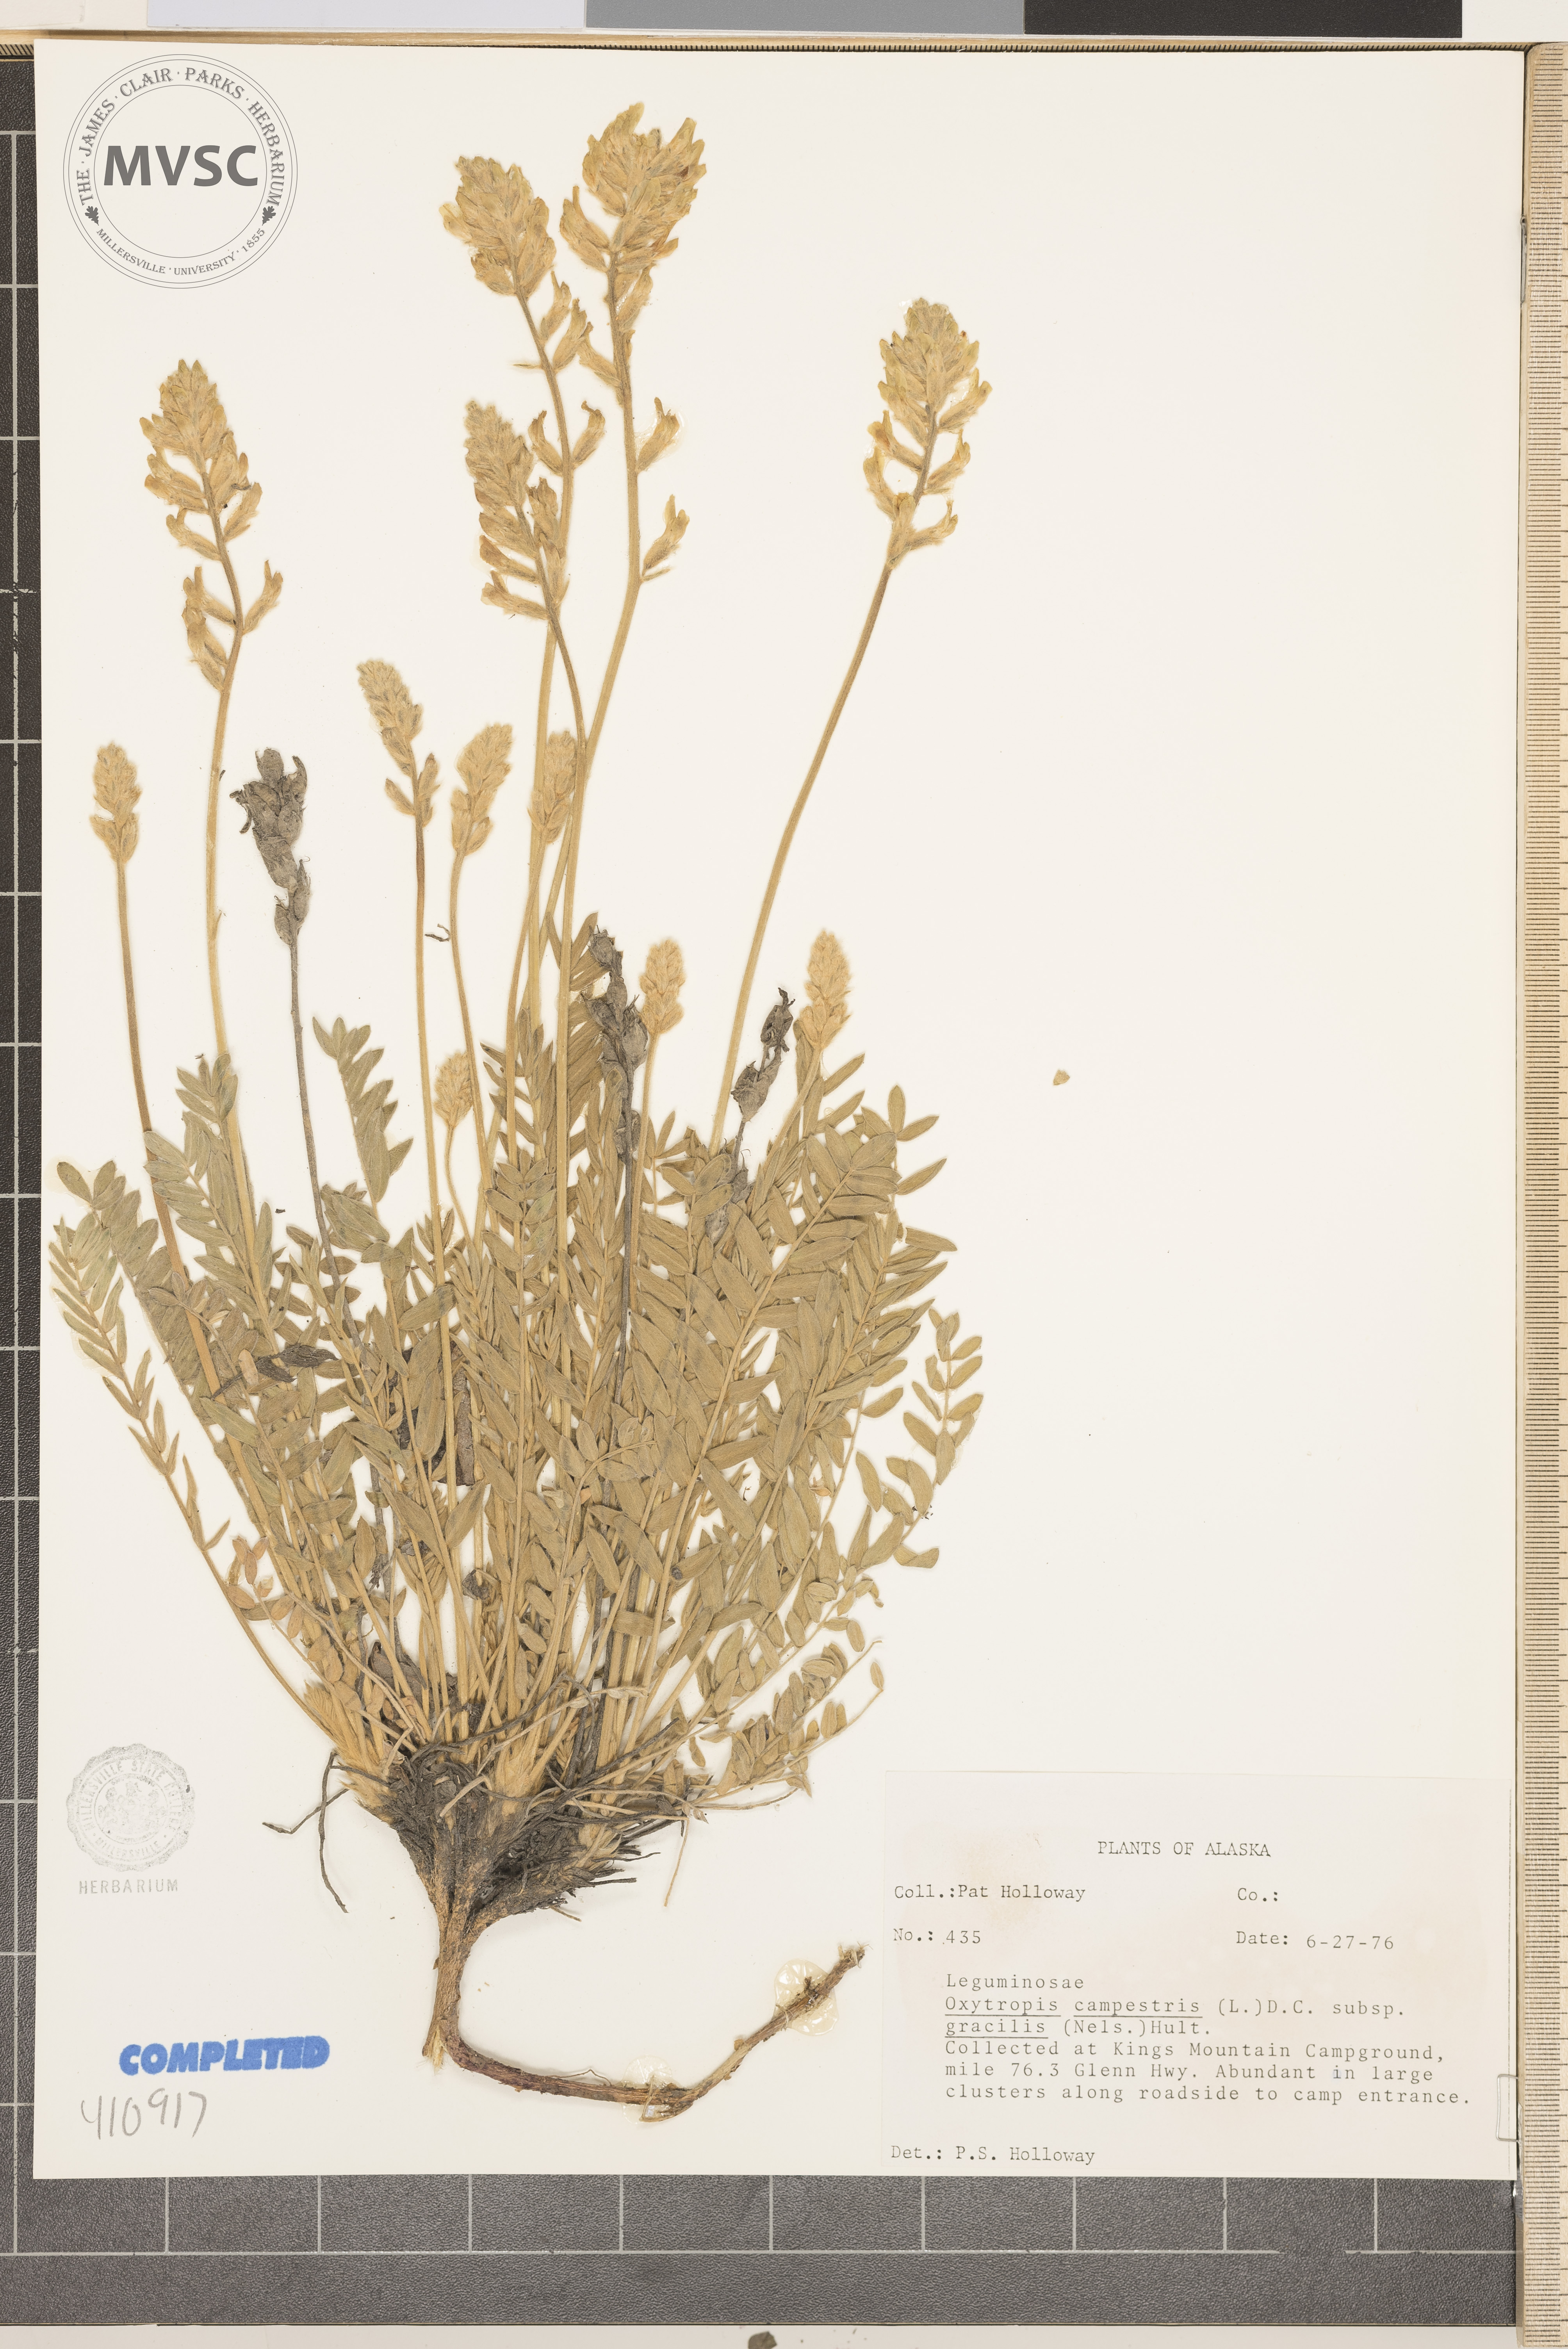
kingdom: Plantae
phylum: Tracheophyta
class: Magnoliopsida
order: Fabales
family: Fabaceae
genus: Oxytropis
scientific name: Oxytropis campestris
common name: Field locoweed
